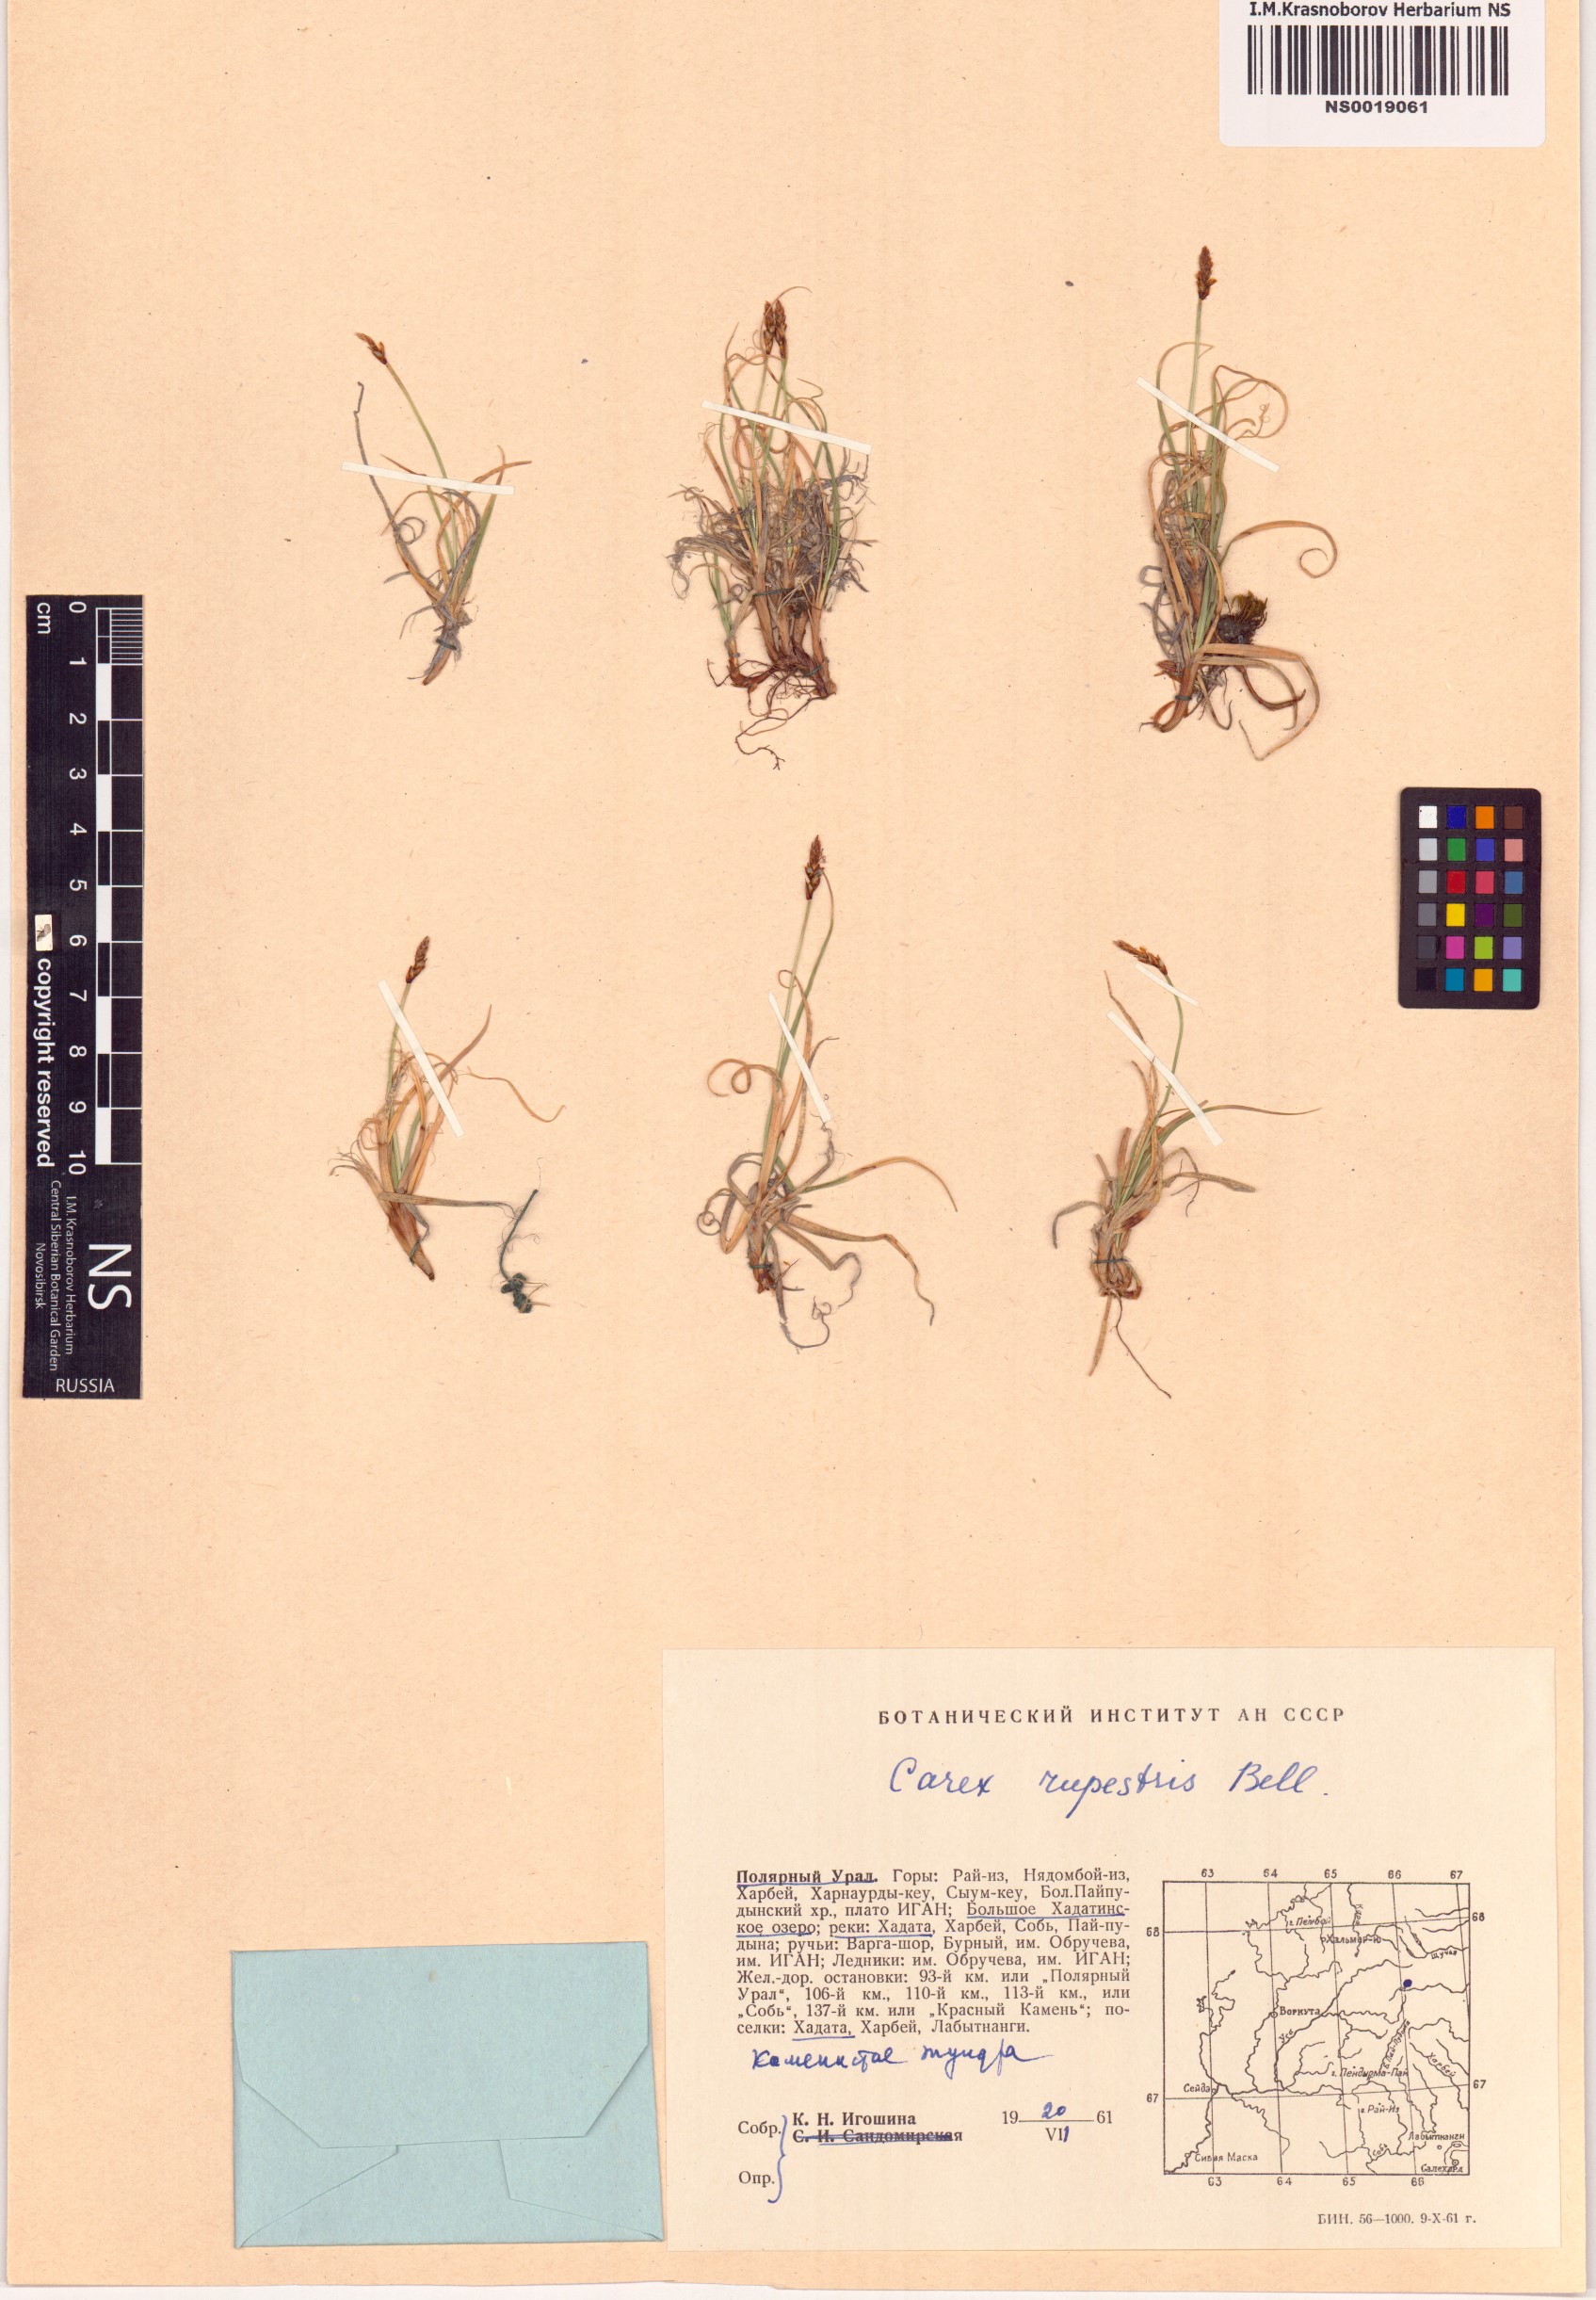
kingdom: Plantae
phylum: Tracheophyta
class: Liliopsida
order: Poales
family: Cyperaceae
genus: Carex
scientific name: Carex rupestris
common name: Rock sedge
